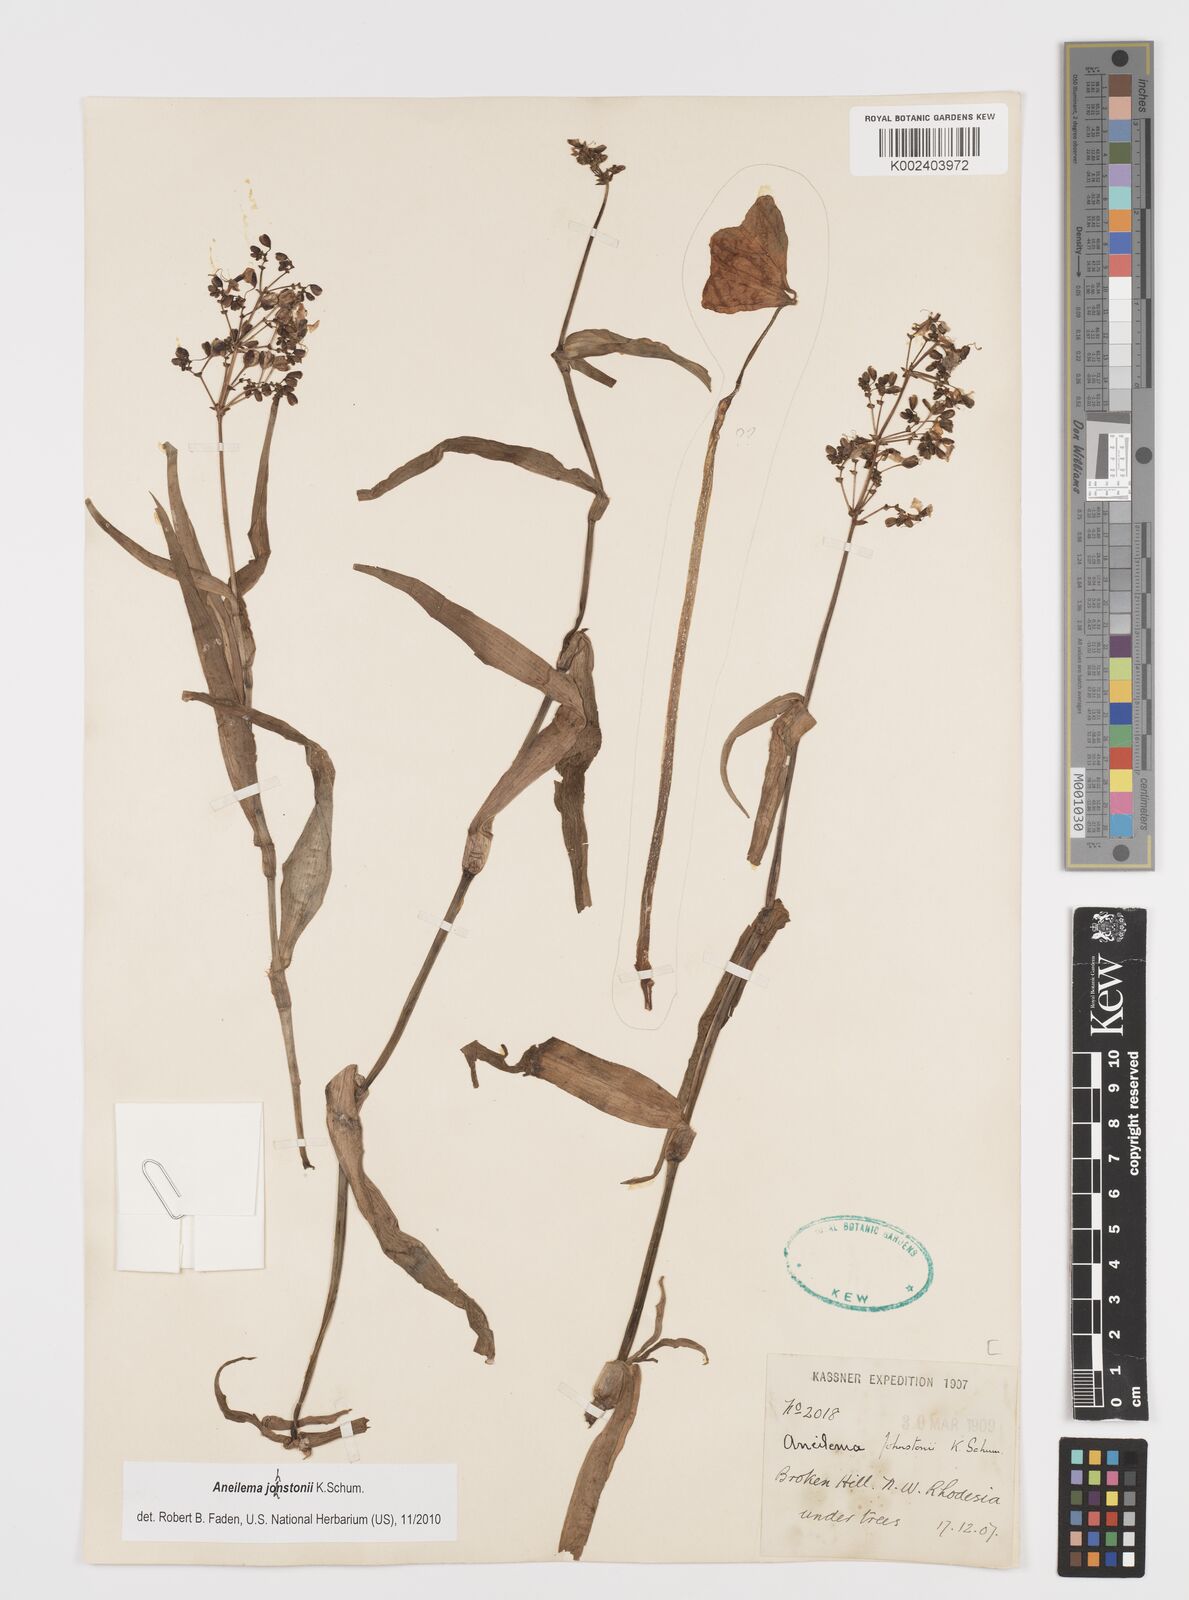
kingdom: Plantae
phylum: Tracheophyta
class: Liliopsida
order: Commelinales
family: Commelinaceae
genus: Aneilema
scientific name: Aneilema johnstonii
